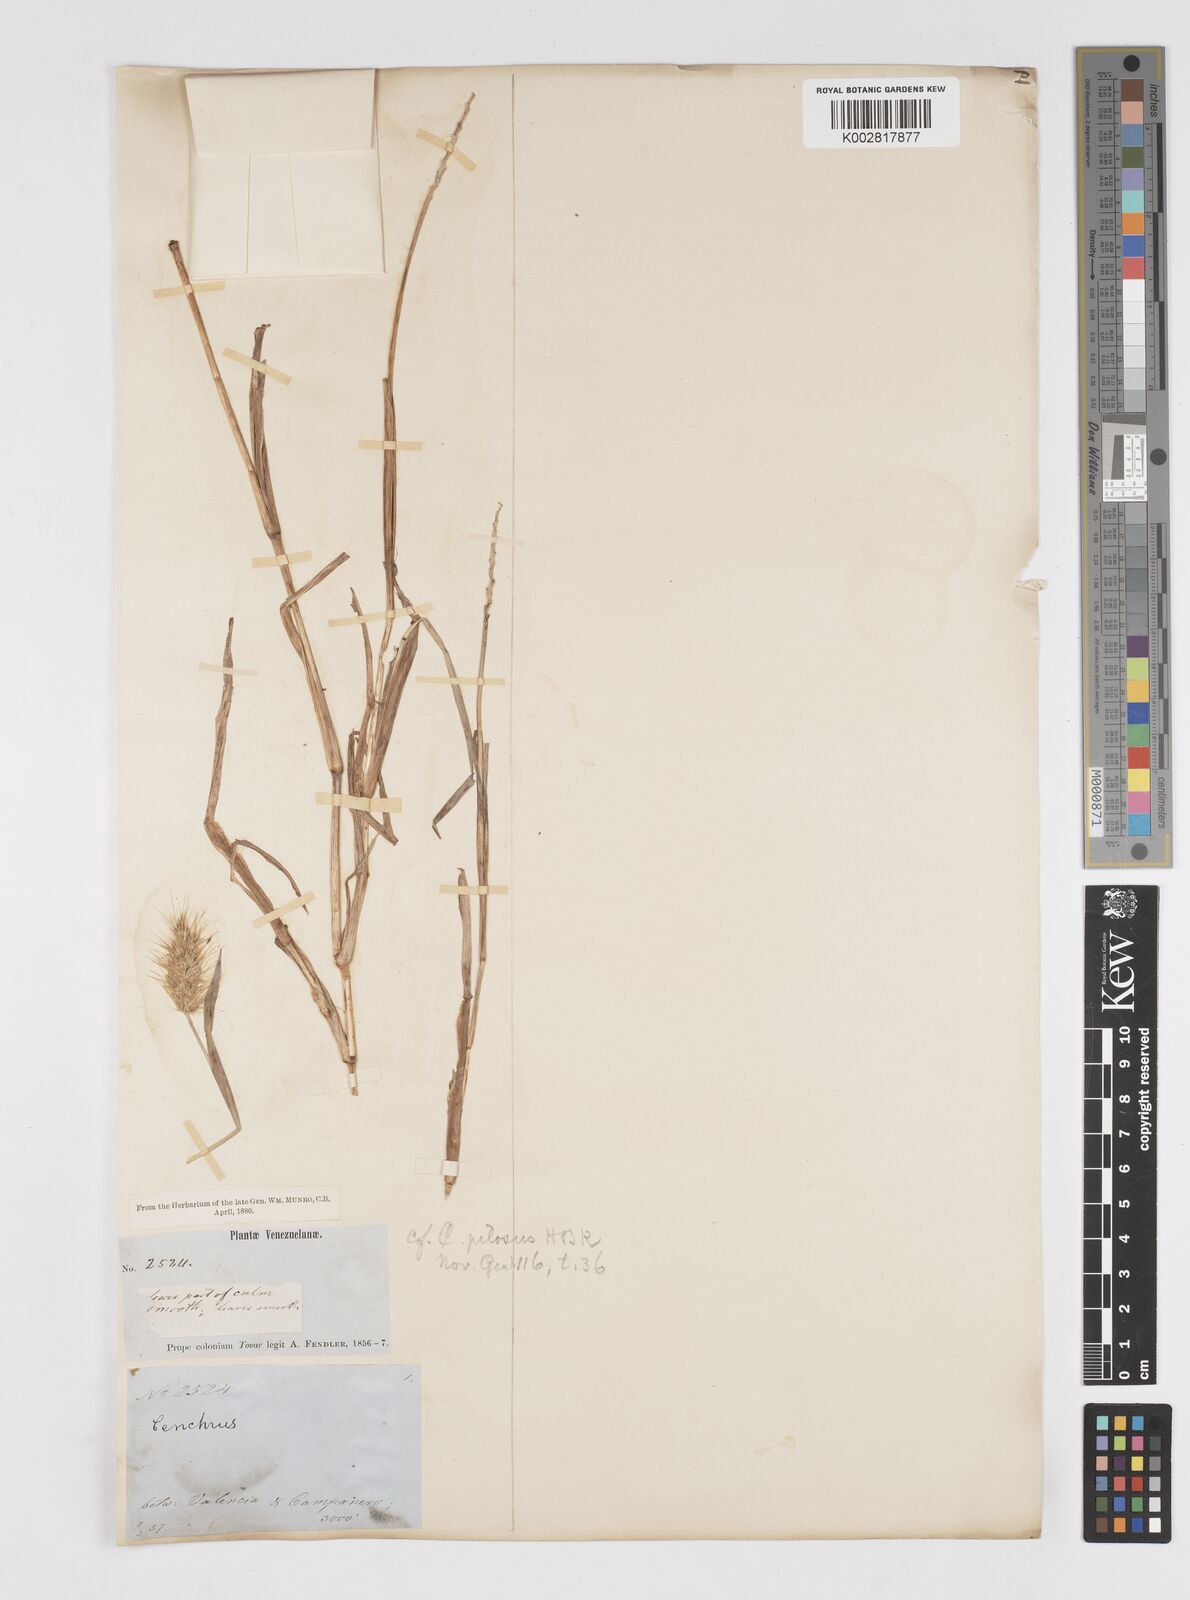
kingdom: Plantae
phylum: Tracheophyta
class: Liliopsida
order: Poales
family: Poaceae
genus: Cenchrus
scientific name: Cenchrus pilosus
